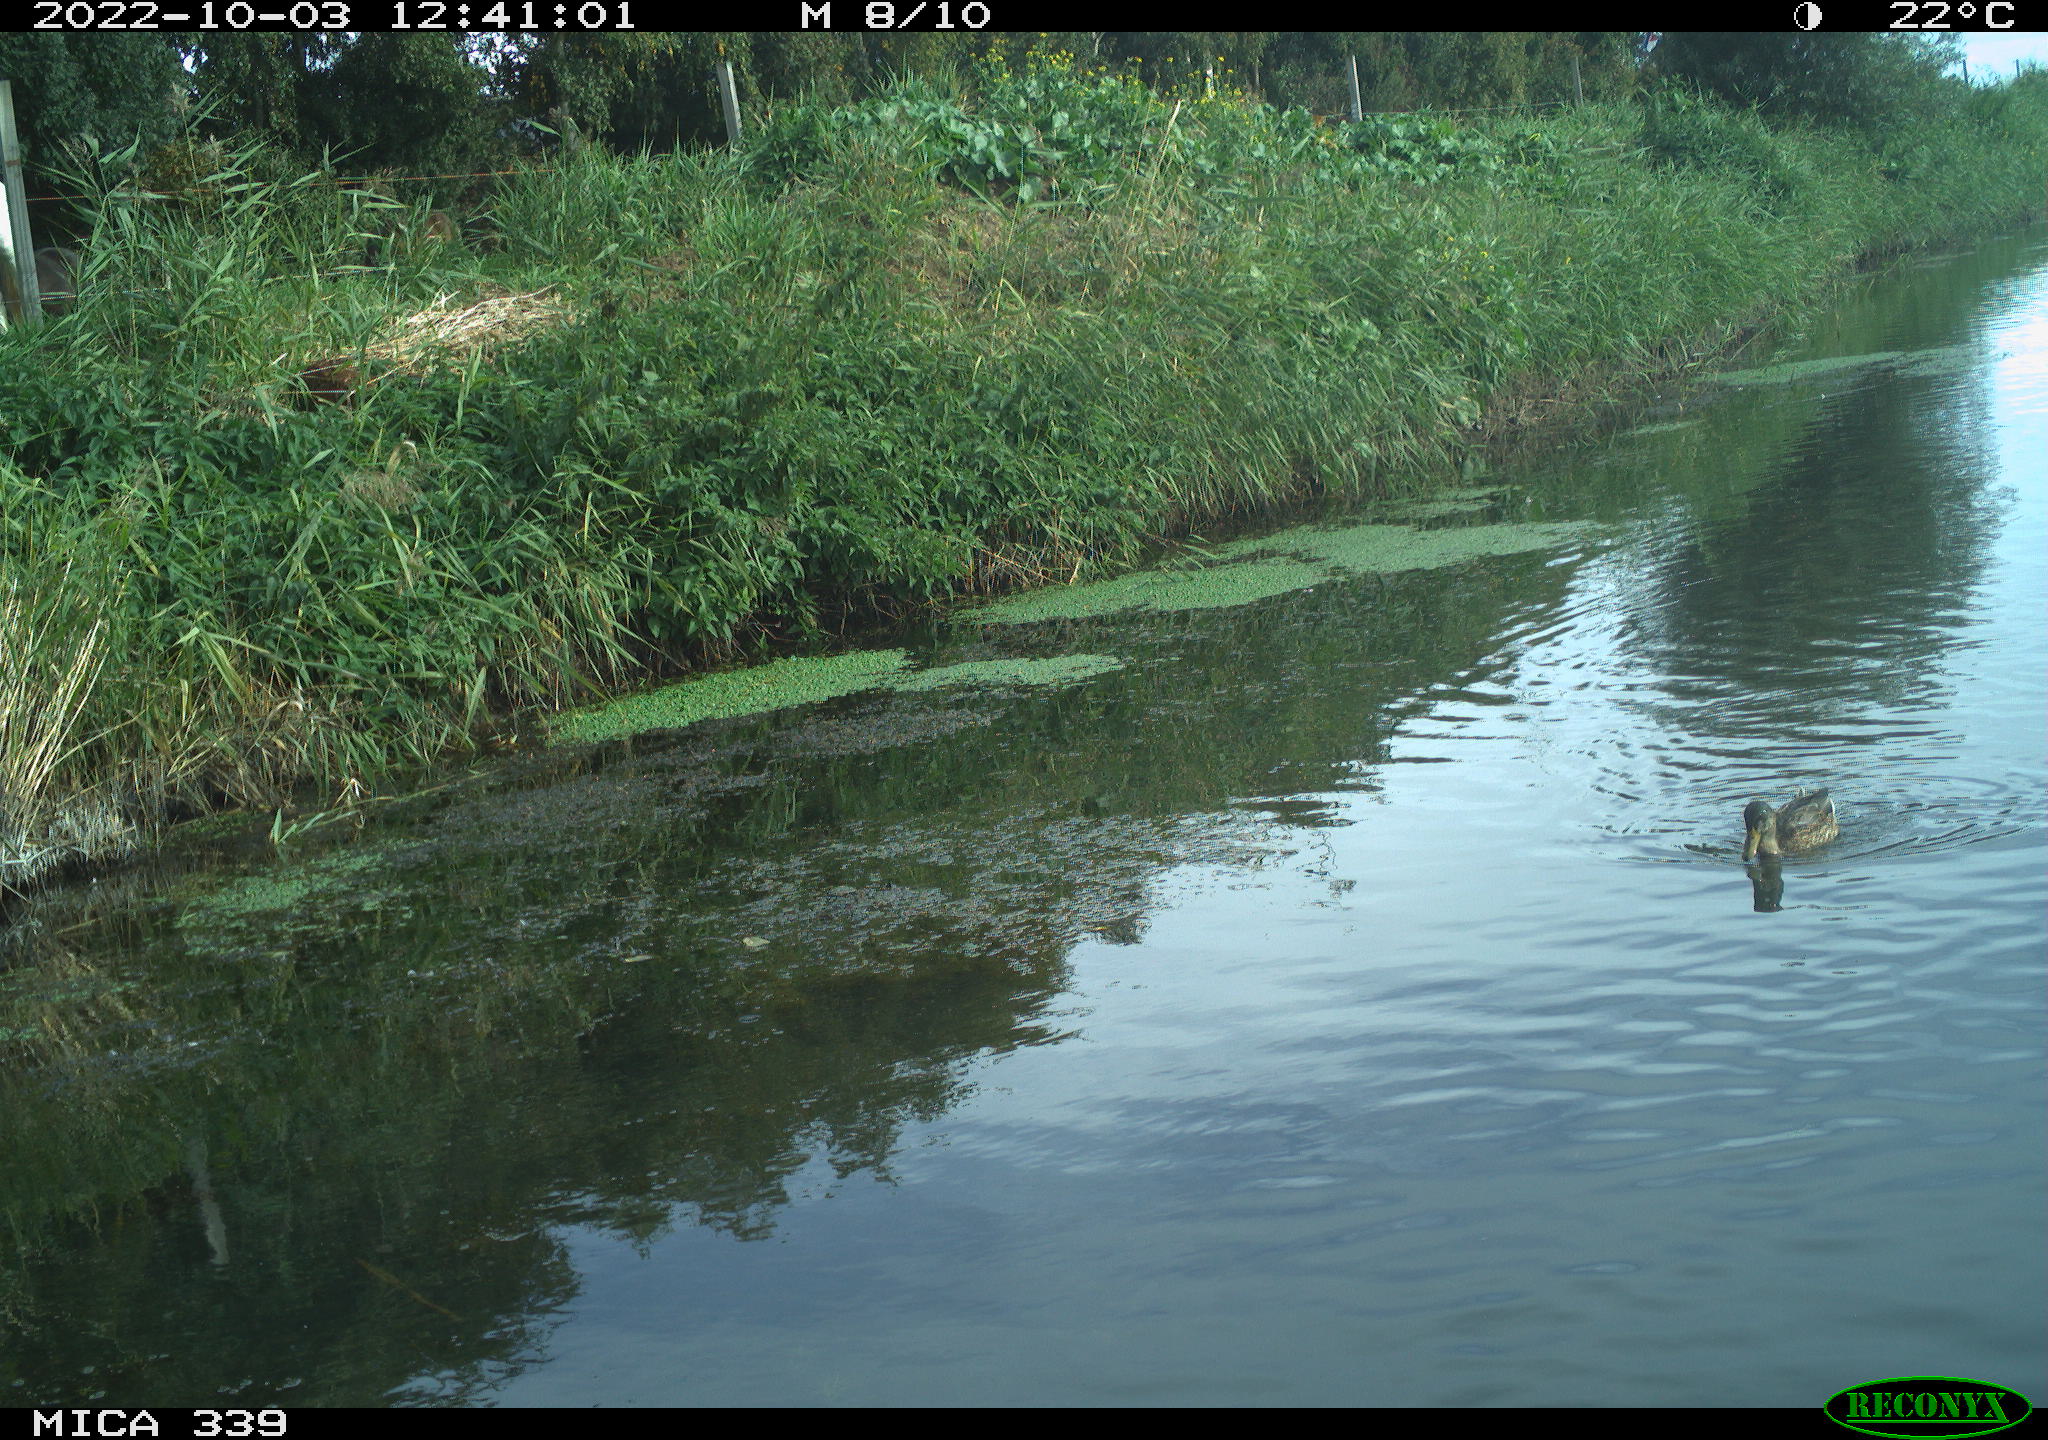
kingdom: Animalia
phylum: Chordata
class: Aves
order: Anseriformes
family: Anatidae
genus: Anas
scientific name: Anas platyrhynchos
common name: Mallard
